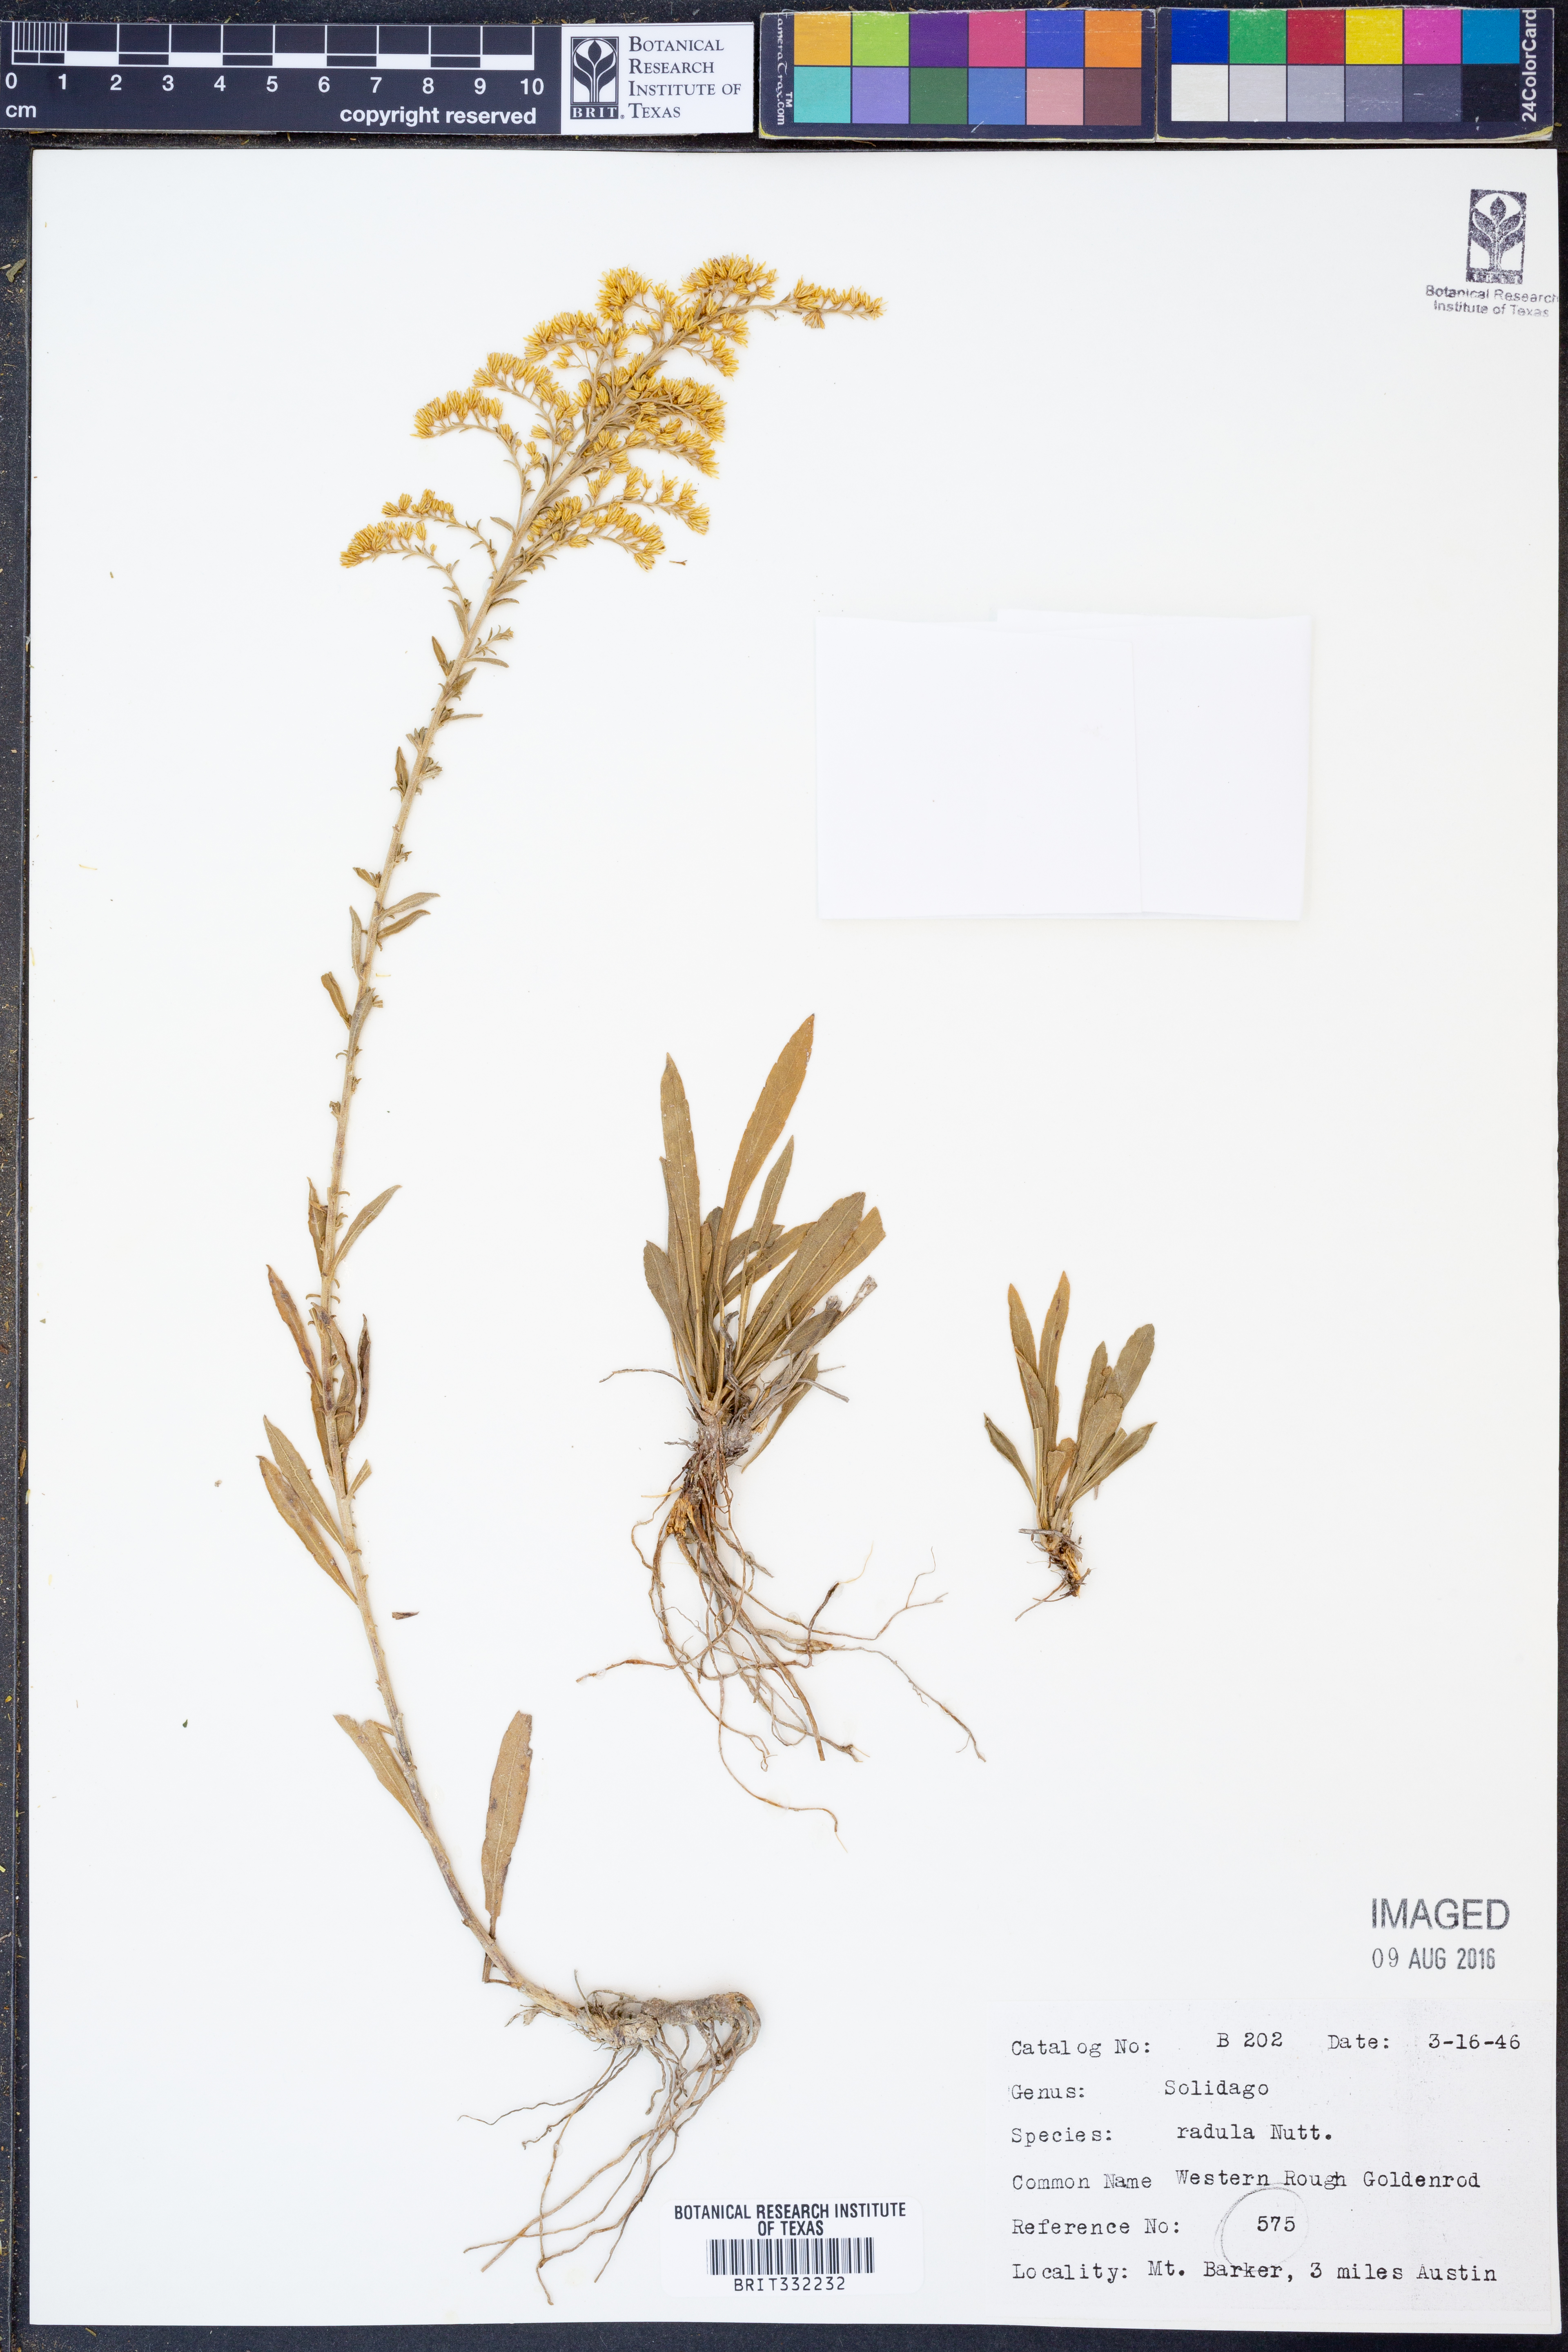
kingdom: Plantae
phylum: Tracheophyta
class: Magnoliopsida
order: Asterales
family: Asteraceae
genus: Solidago
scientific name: Solidago radula
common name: Western rough goldenrod
